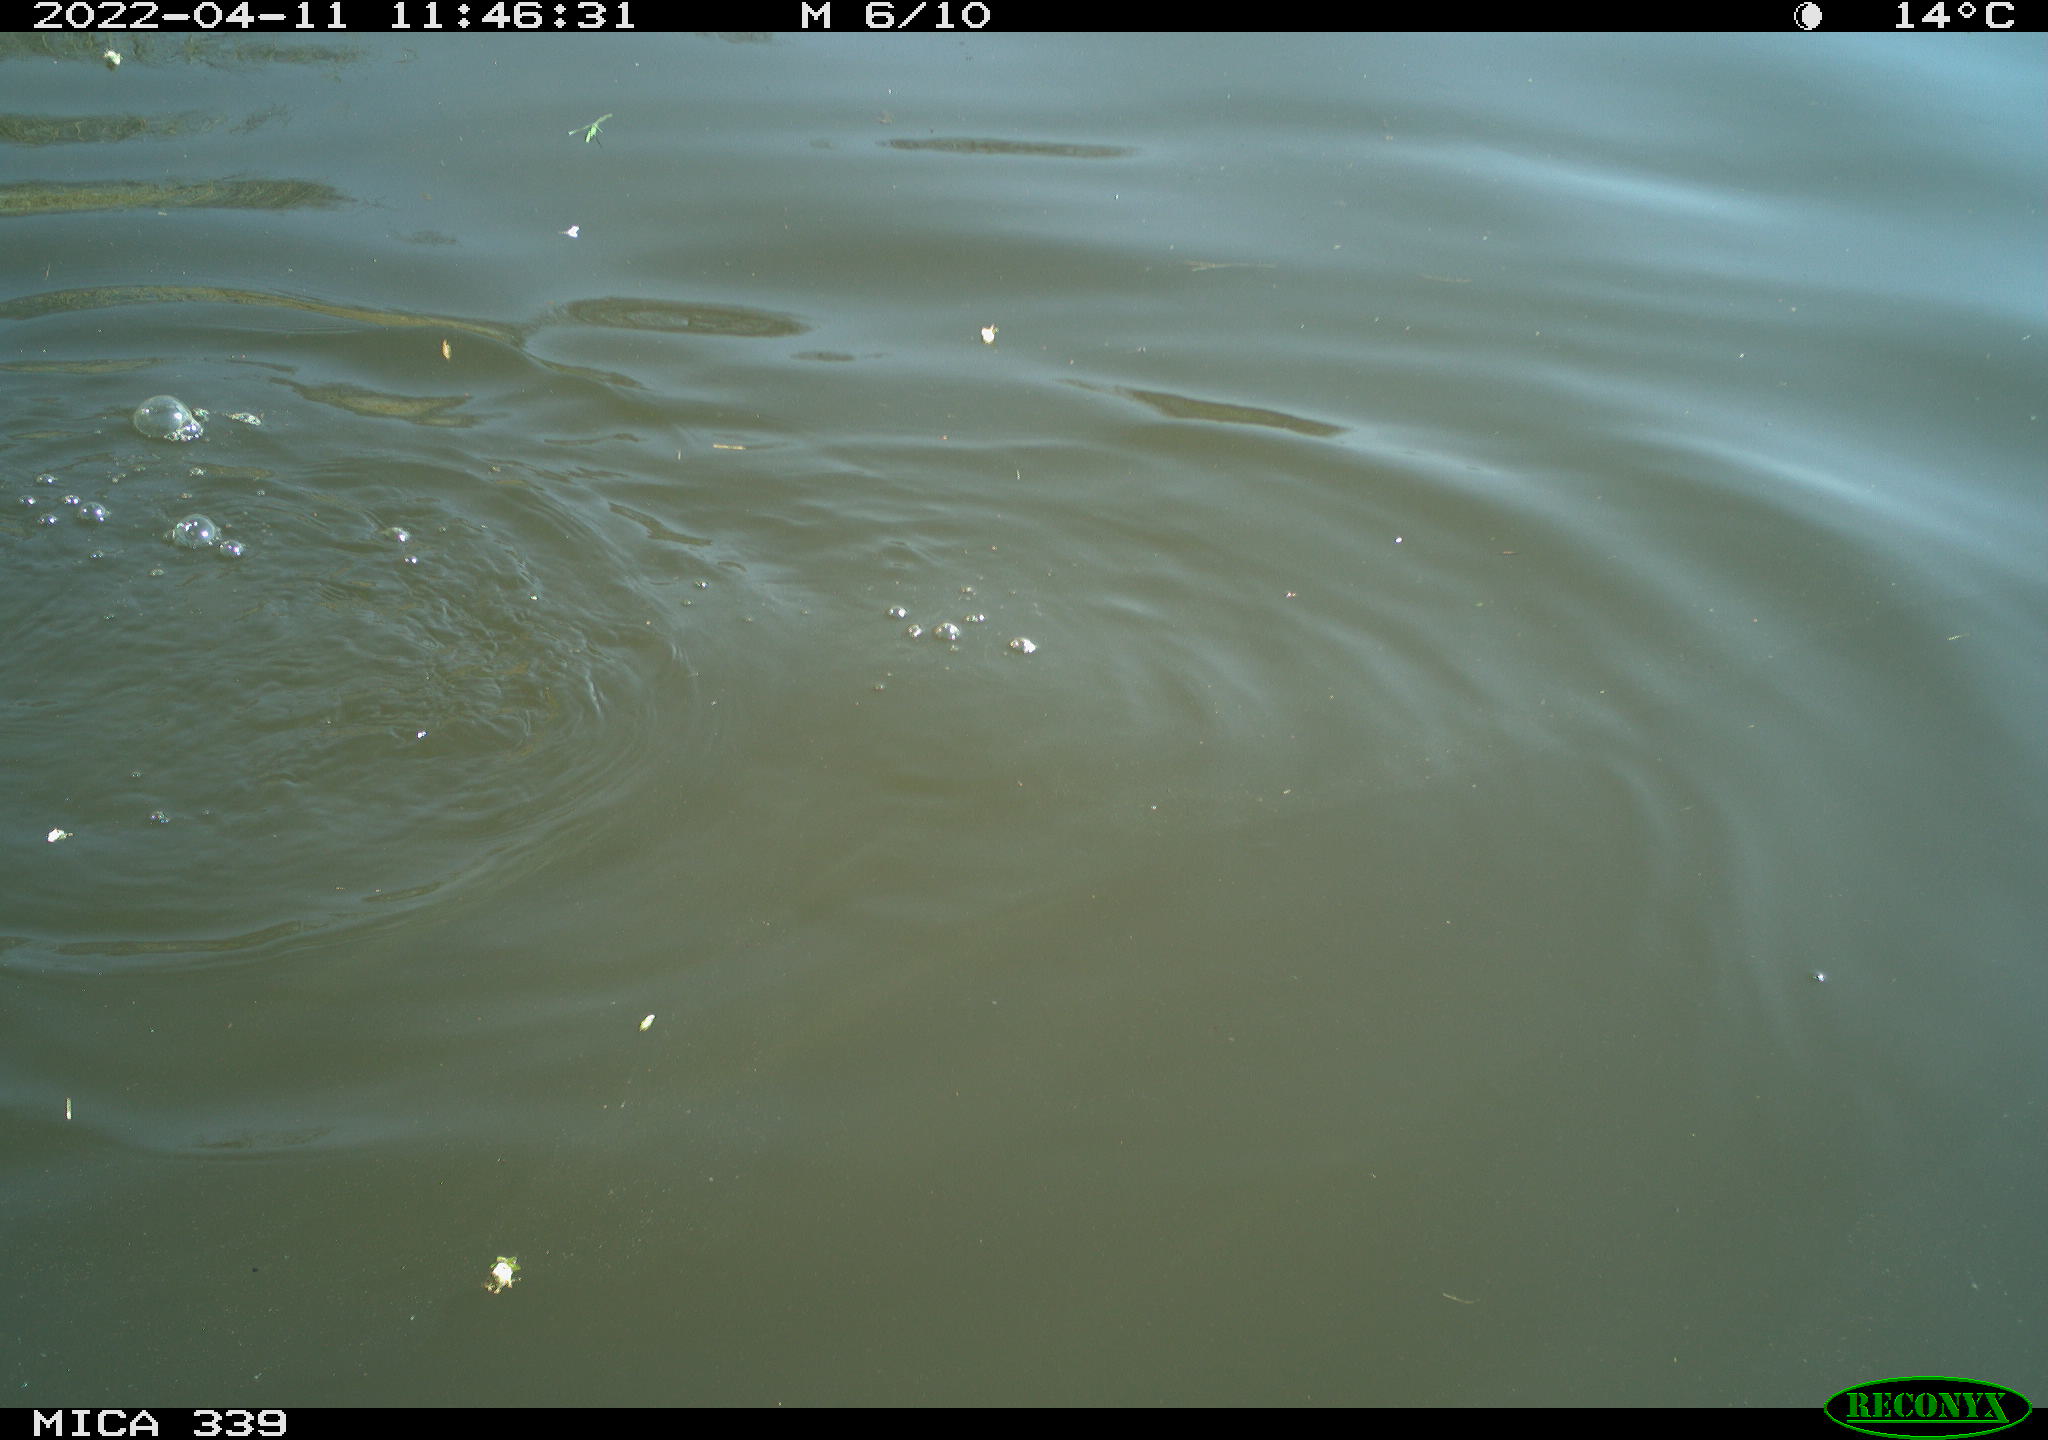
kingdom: Animalia
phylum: Chordata
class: Aves
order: Suliformes
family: Phalacrocoracidae
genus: Phalacrocorax
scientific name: Phalacrocorax carbo
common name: Great cormorant
